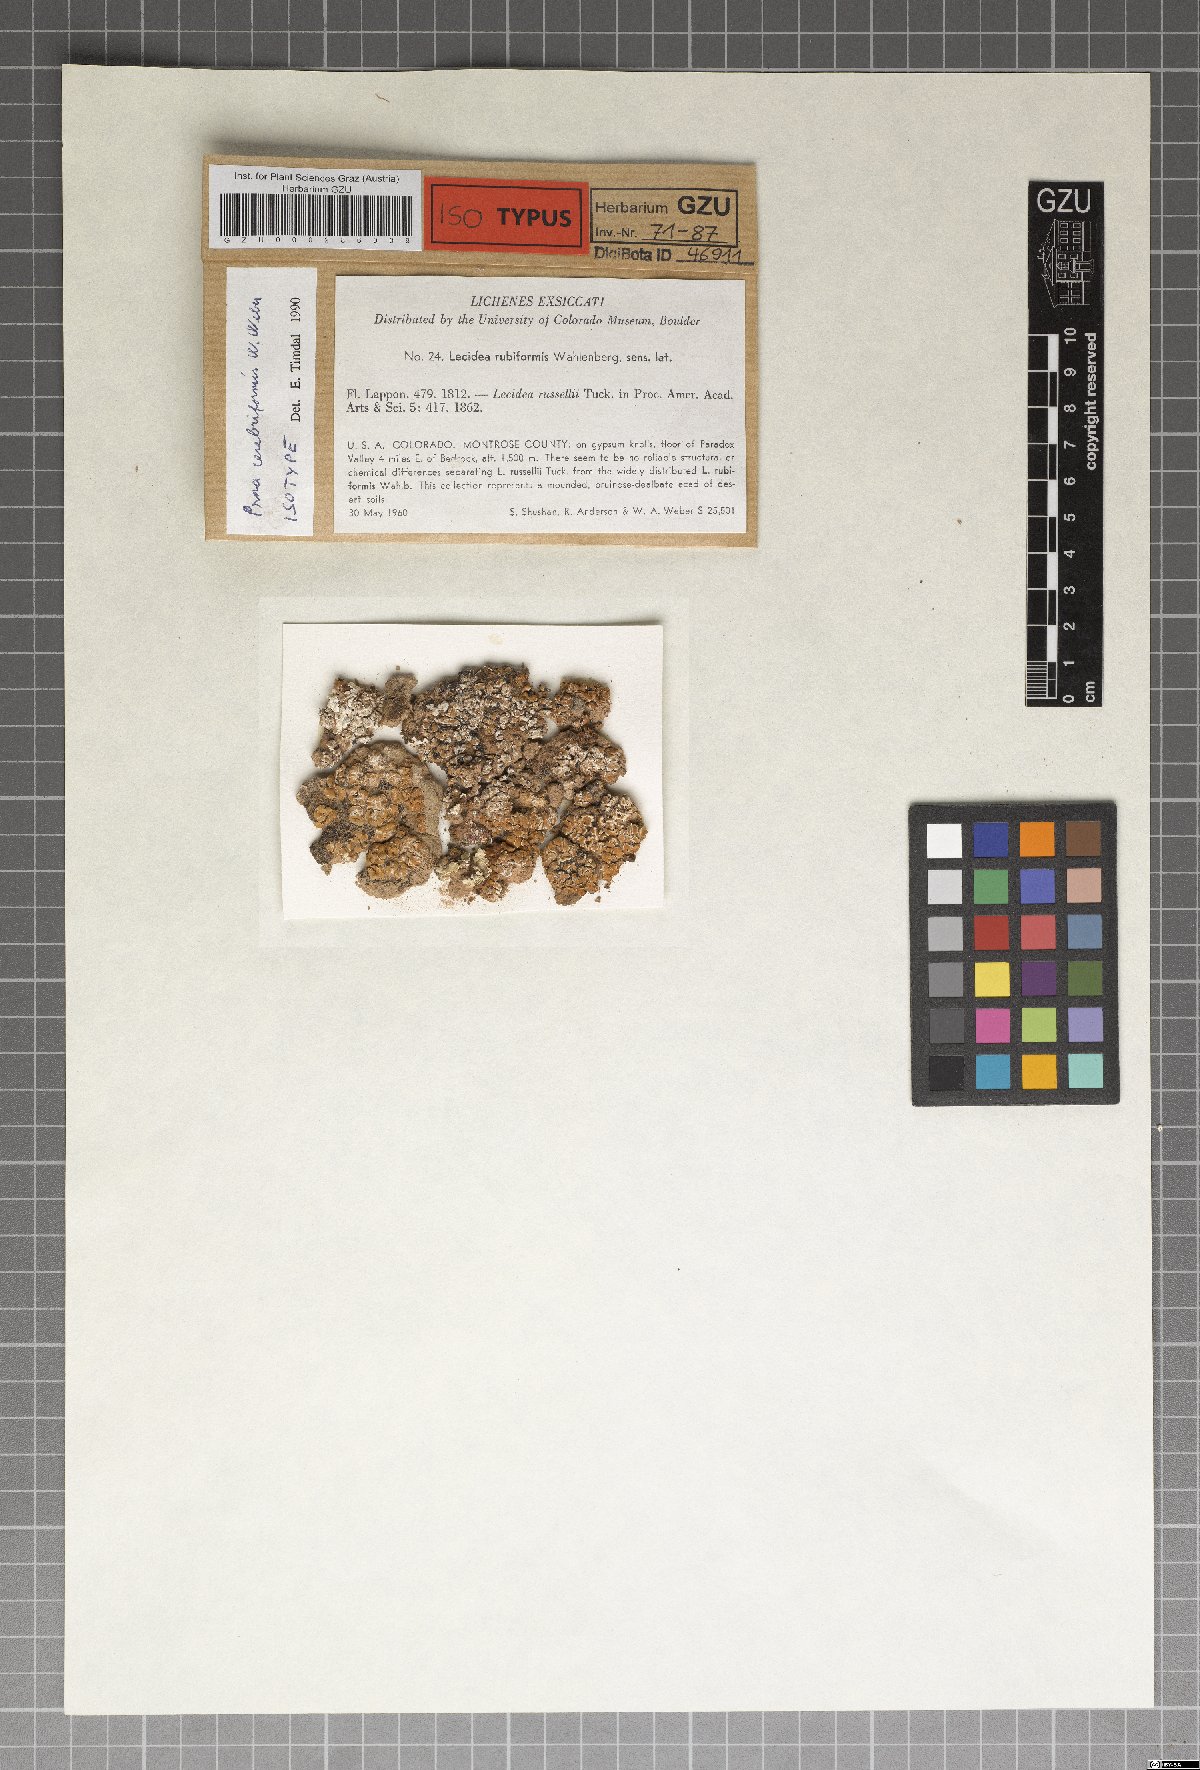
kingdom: Fungi
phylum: Ascomycota
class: Lecanoromycetes
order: Lecanorales
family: Psoraceae
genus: Psora
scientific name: Psora cerebriformis
